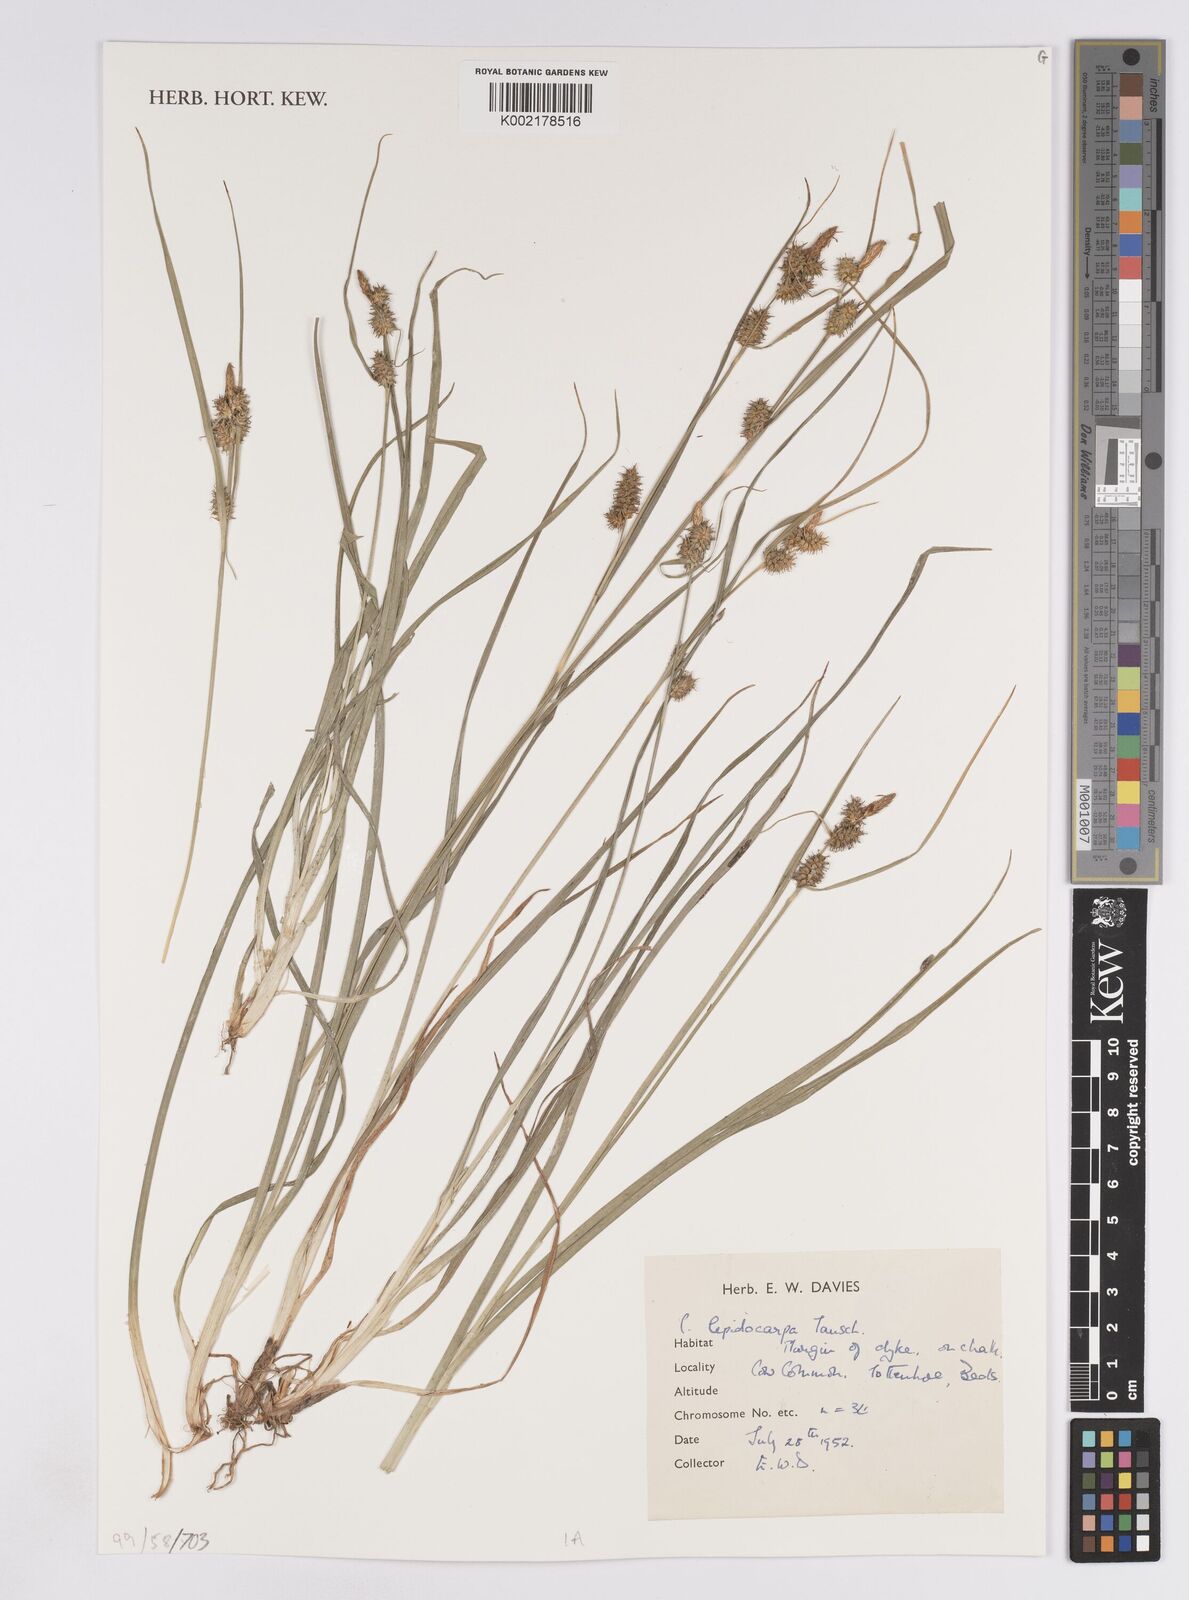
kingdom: Plantae
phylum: Tracheophyta
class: Liliopsida
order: Poales
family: Cyperaceae
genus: Carex
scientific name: Carex lepidocarpa
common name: Long-stalked yellow-sedge
